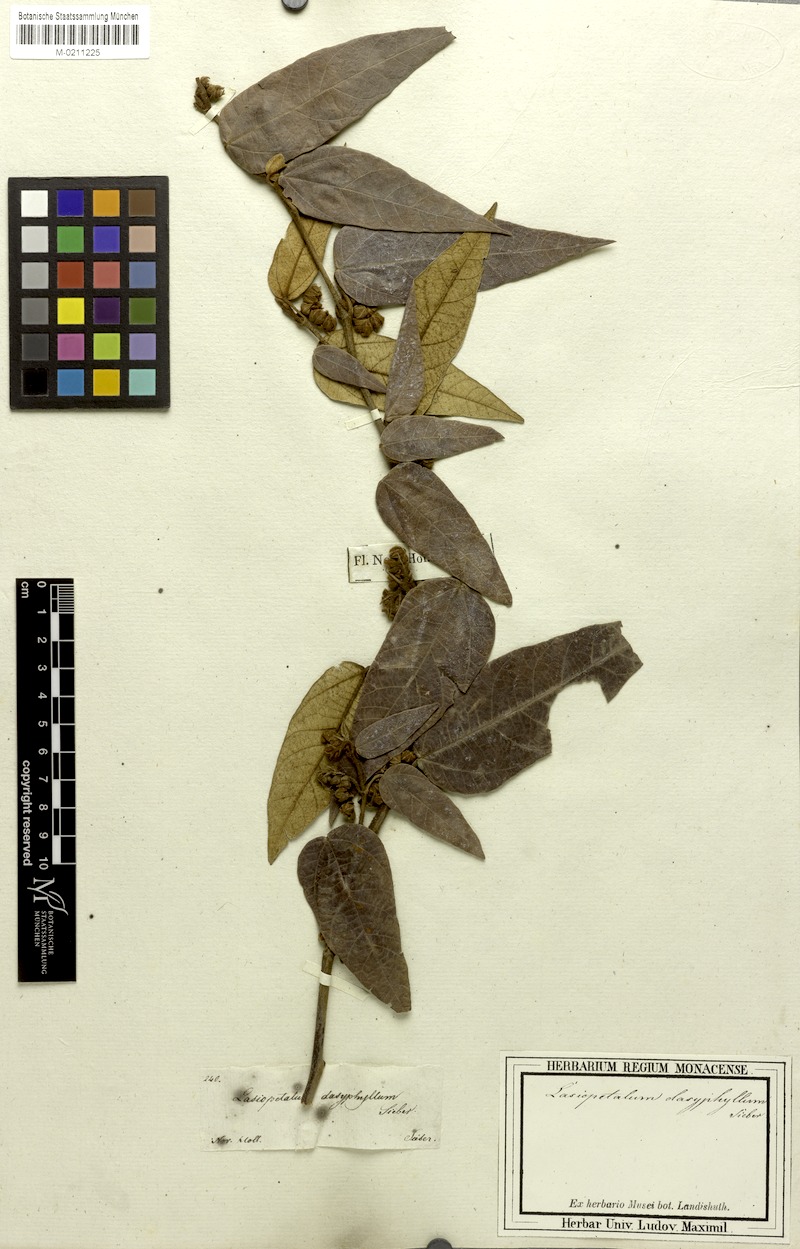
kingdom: Plantae
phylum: Tracheophyta
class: Magnoliopsida
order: Malvales
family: Malvaceae
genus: Lasiopetalum
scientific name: Lasiopetalum macrophyllum
